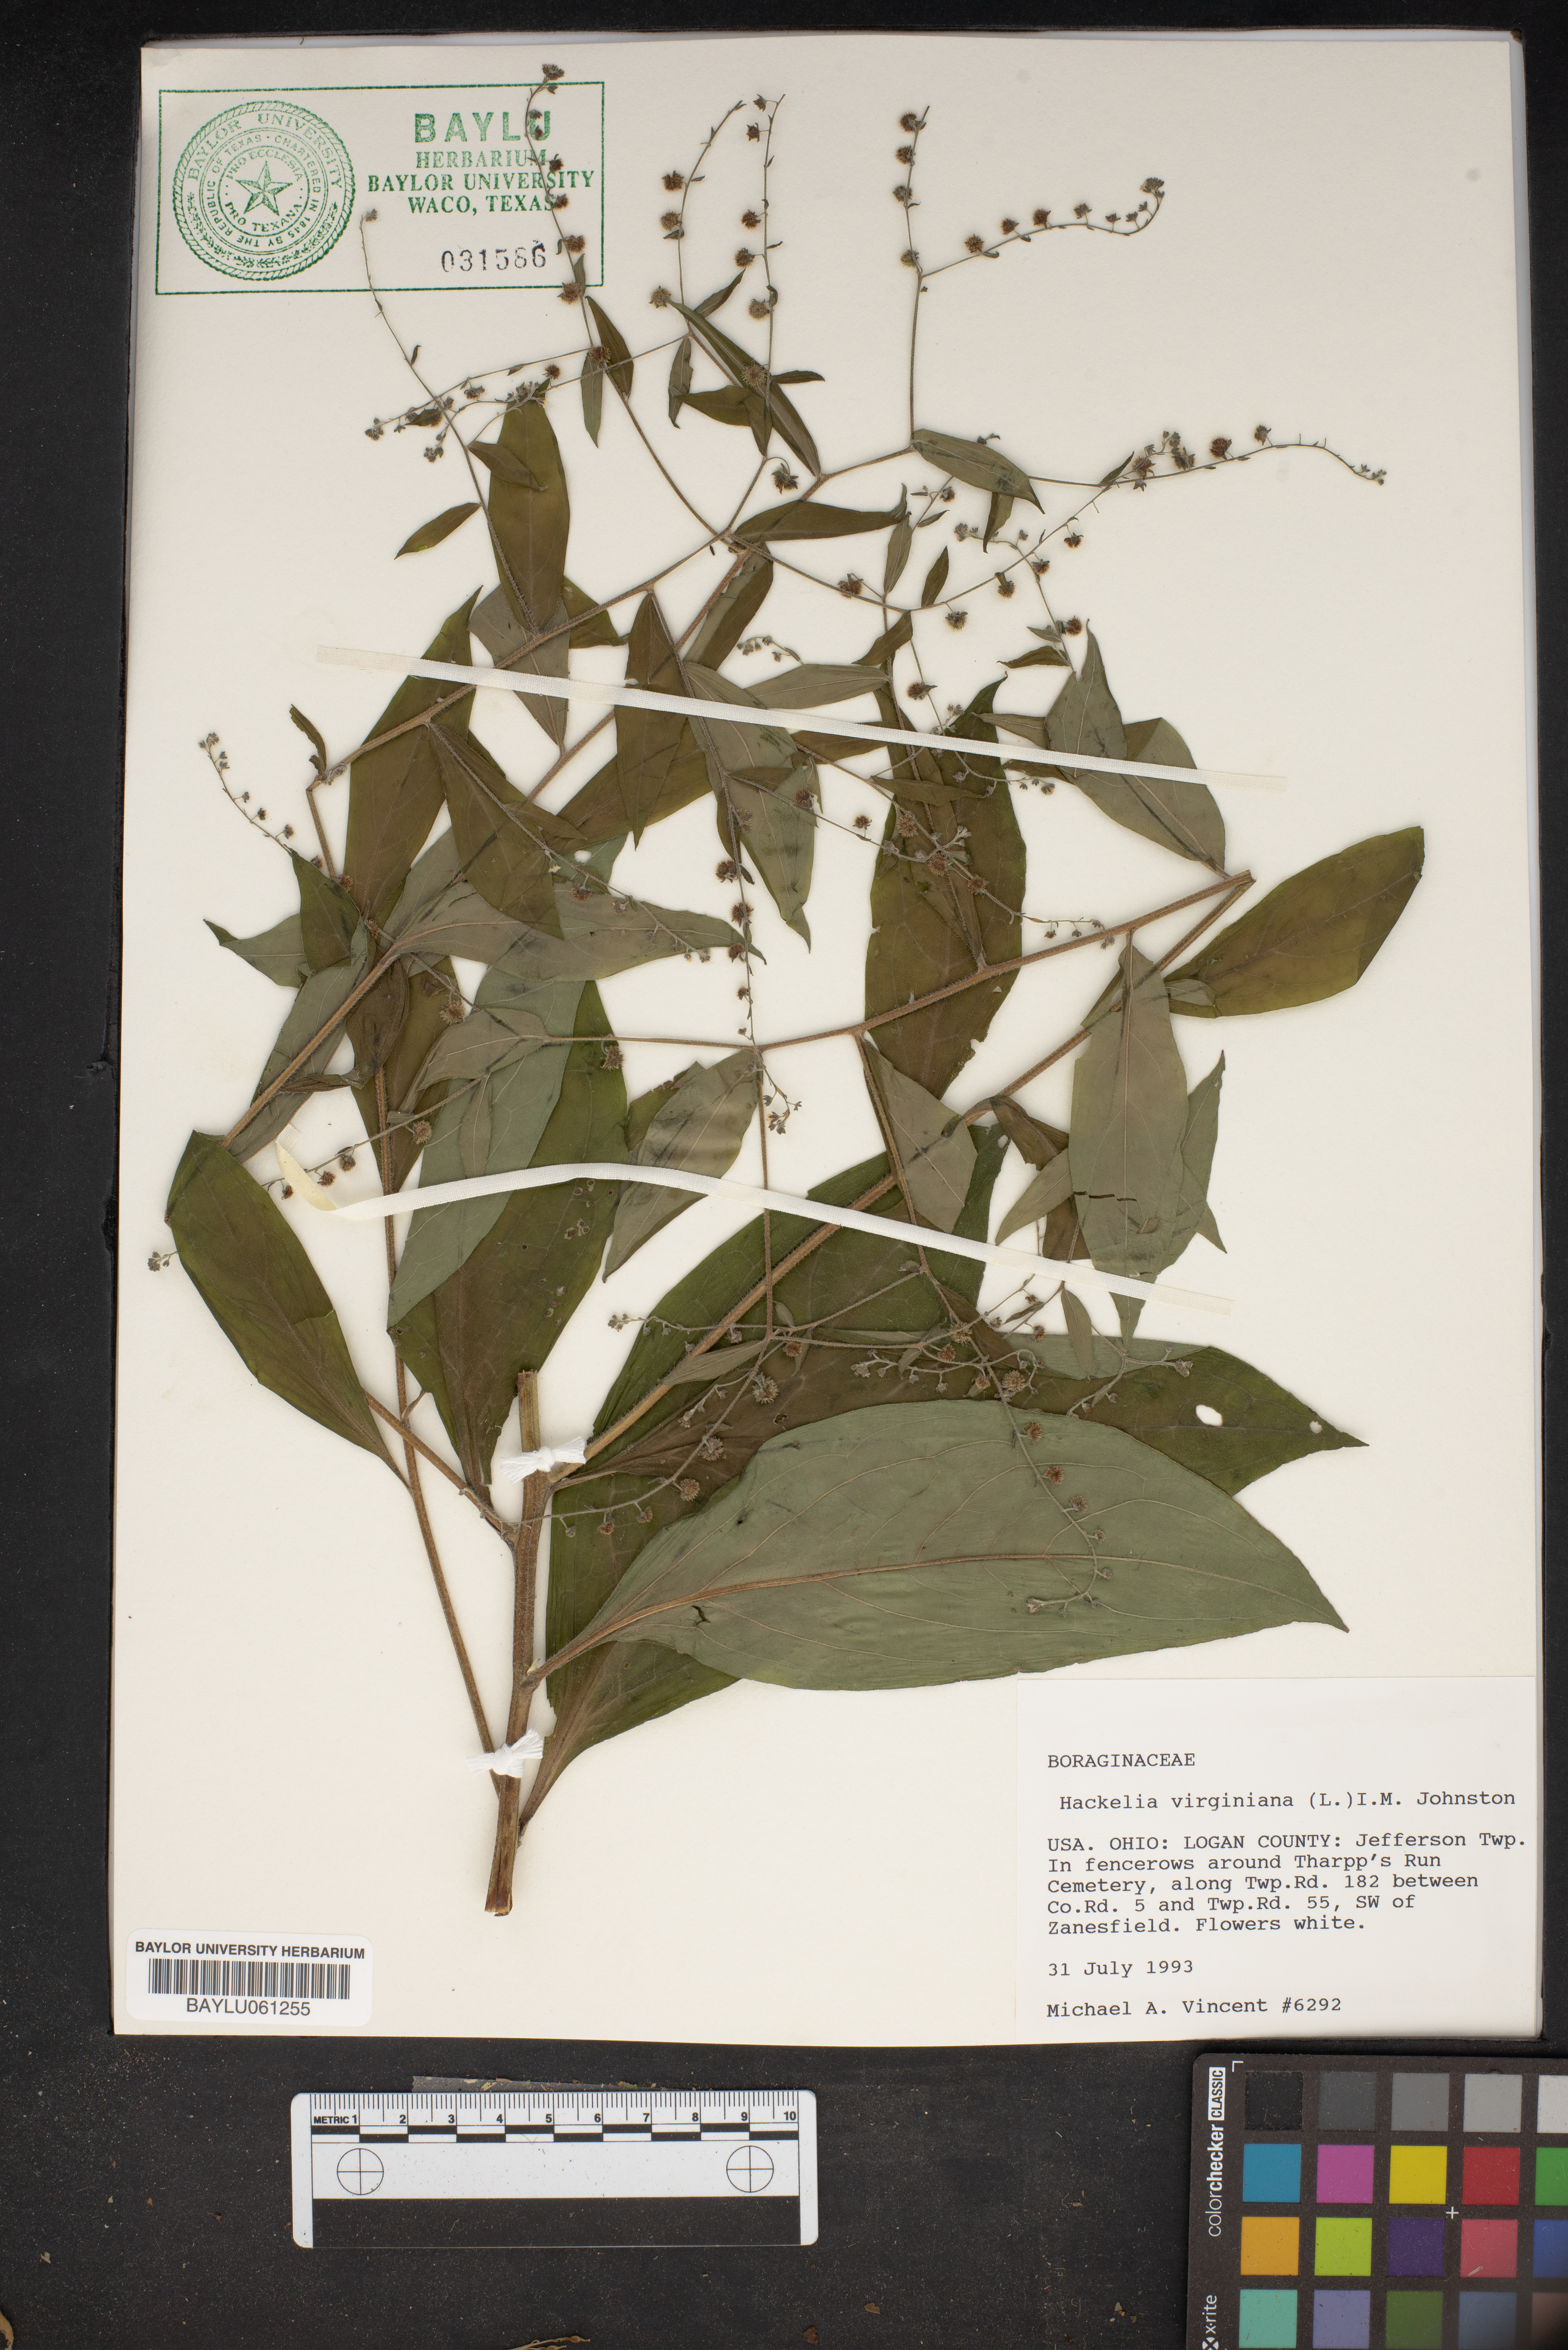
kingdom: Plantae
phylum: Tracheophyta
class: Magnoliopsida
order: Boraginales
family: Boraginaceae
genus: Hackelia
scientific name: Hackelia virginiana
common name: Beggar's-lice
